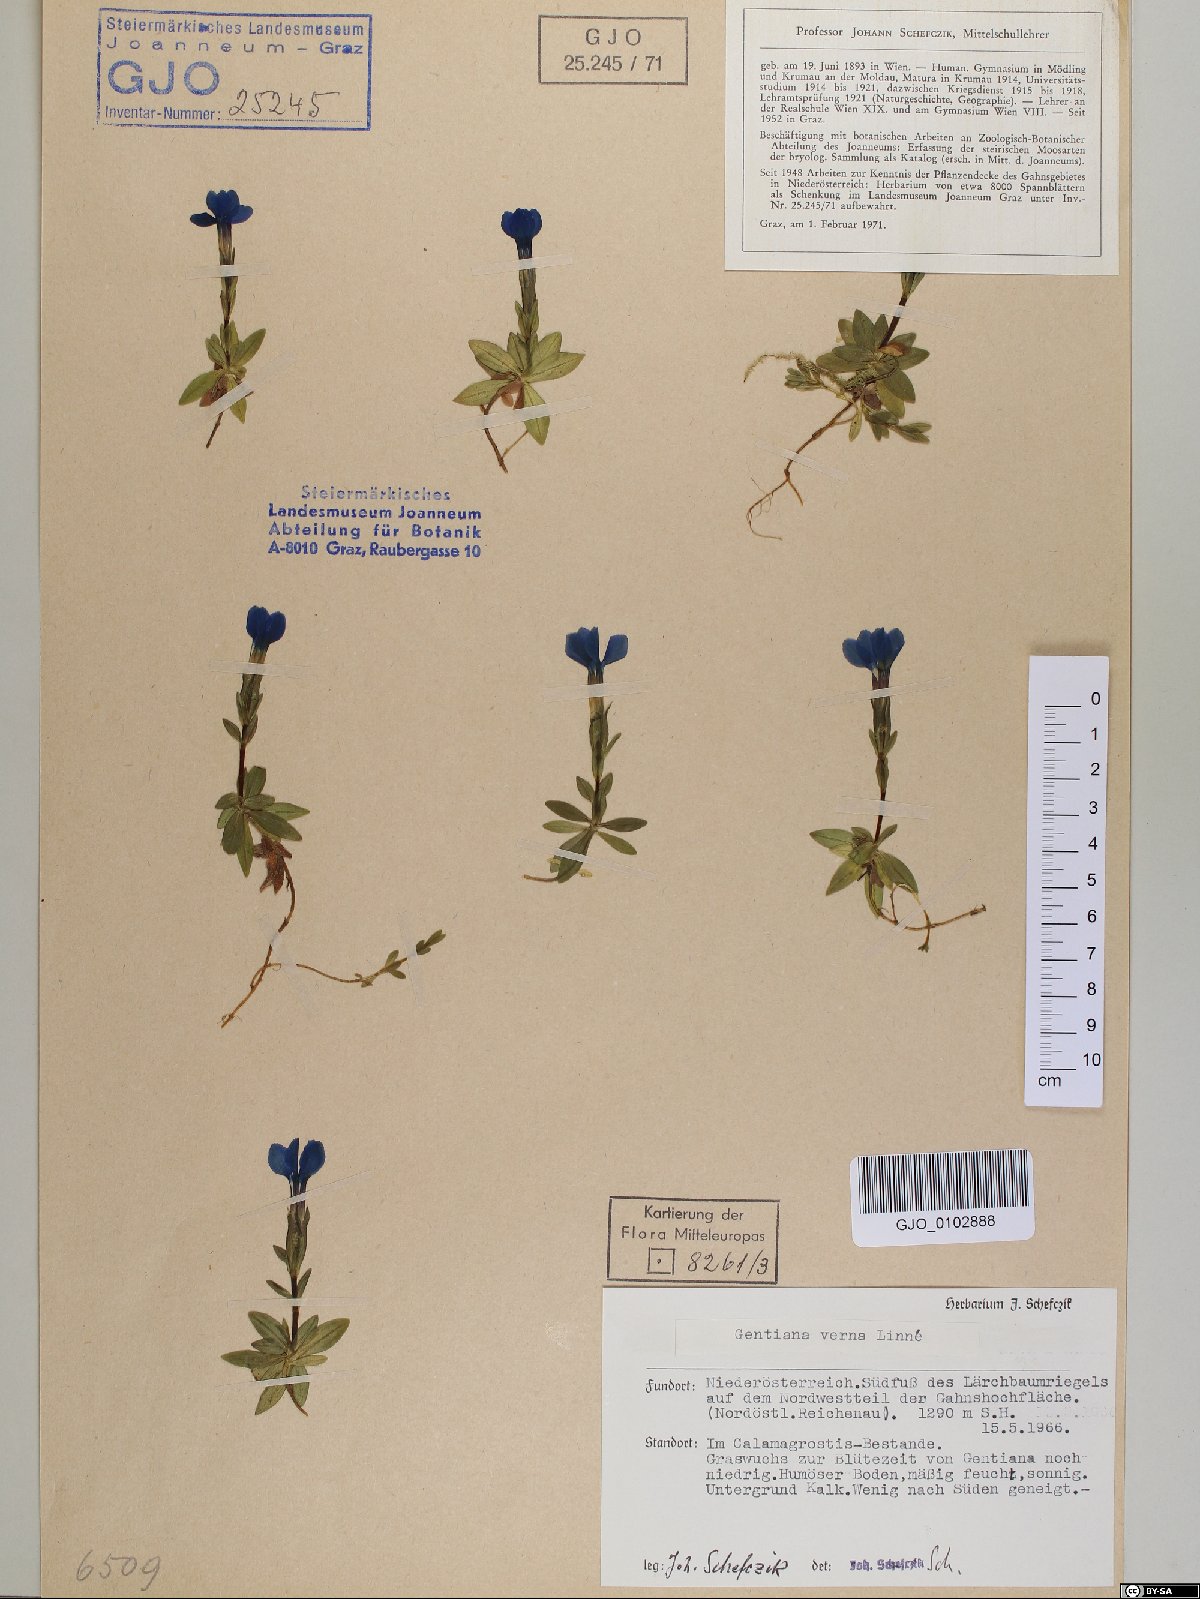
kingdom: Plantae
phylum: Tracheophyta
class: Magnoliopsida
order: Gentianales
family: Gentianaceae
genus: Gentiana
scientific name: Gentiana verna
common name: Spring gentian
